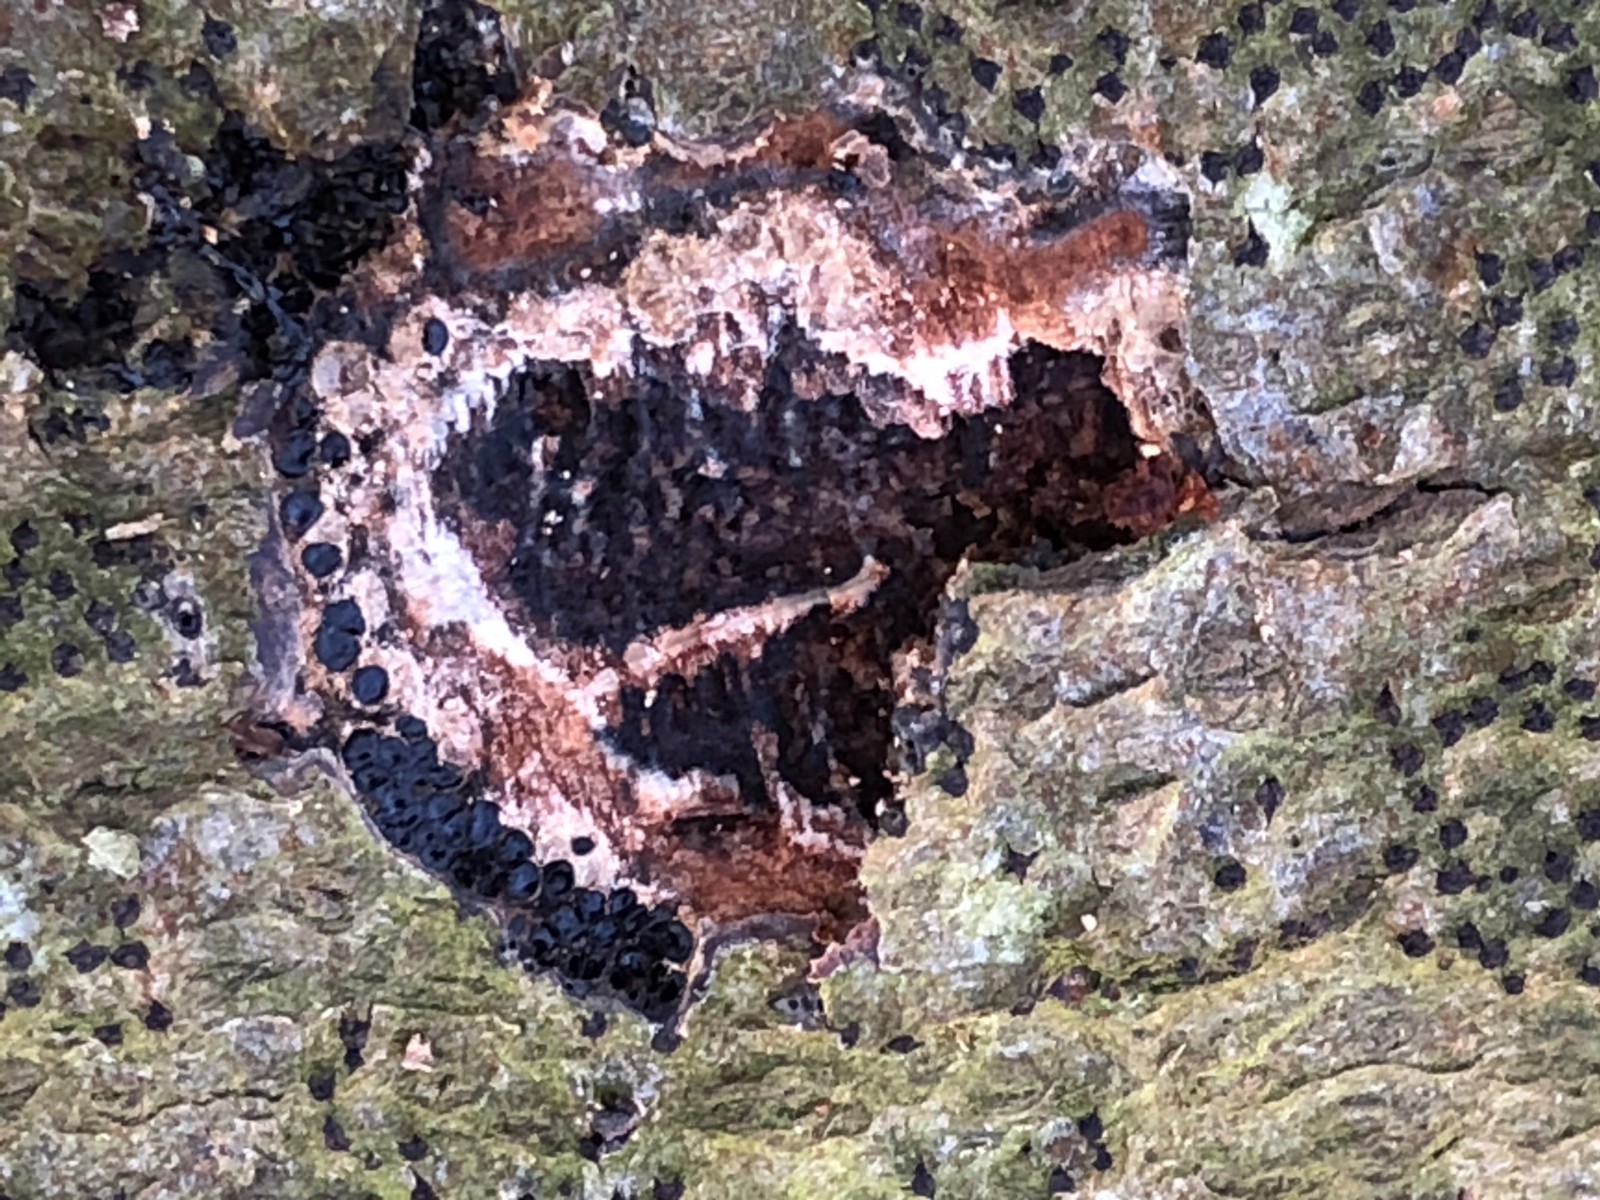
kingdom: Fungi
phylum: Ascomycota
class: Sordariomycetes
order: Xylariales
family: Diatrypaceae
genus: Eutypella
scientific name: Eutypella quaternata
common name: bøge-korsprik
